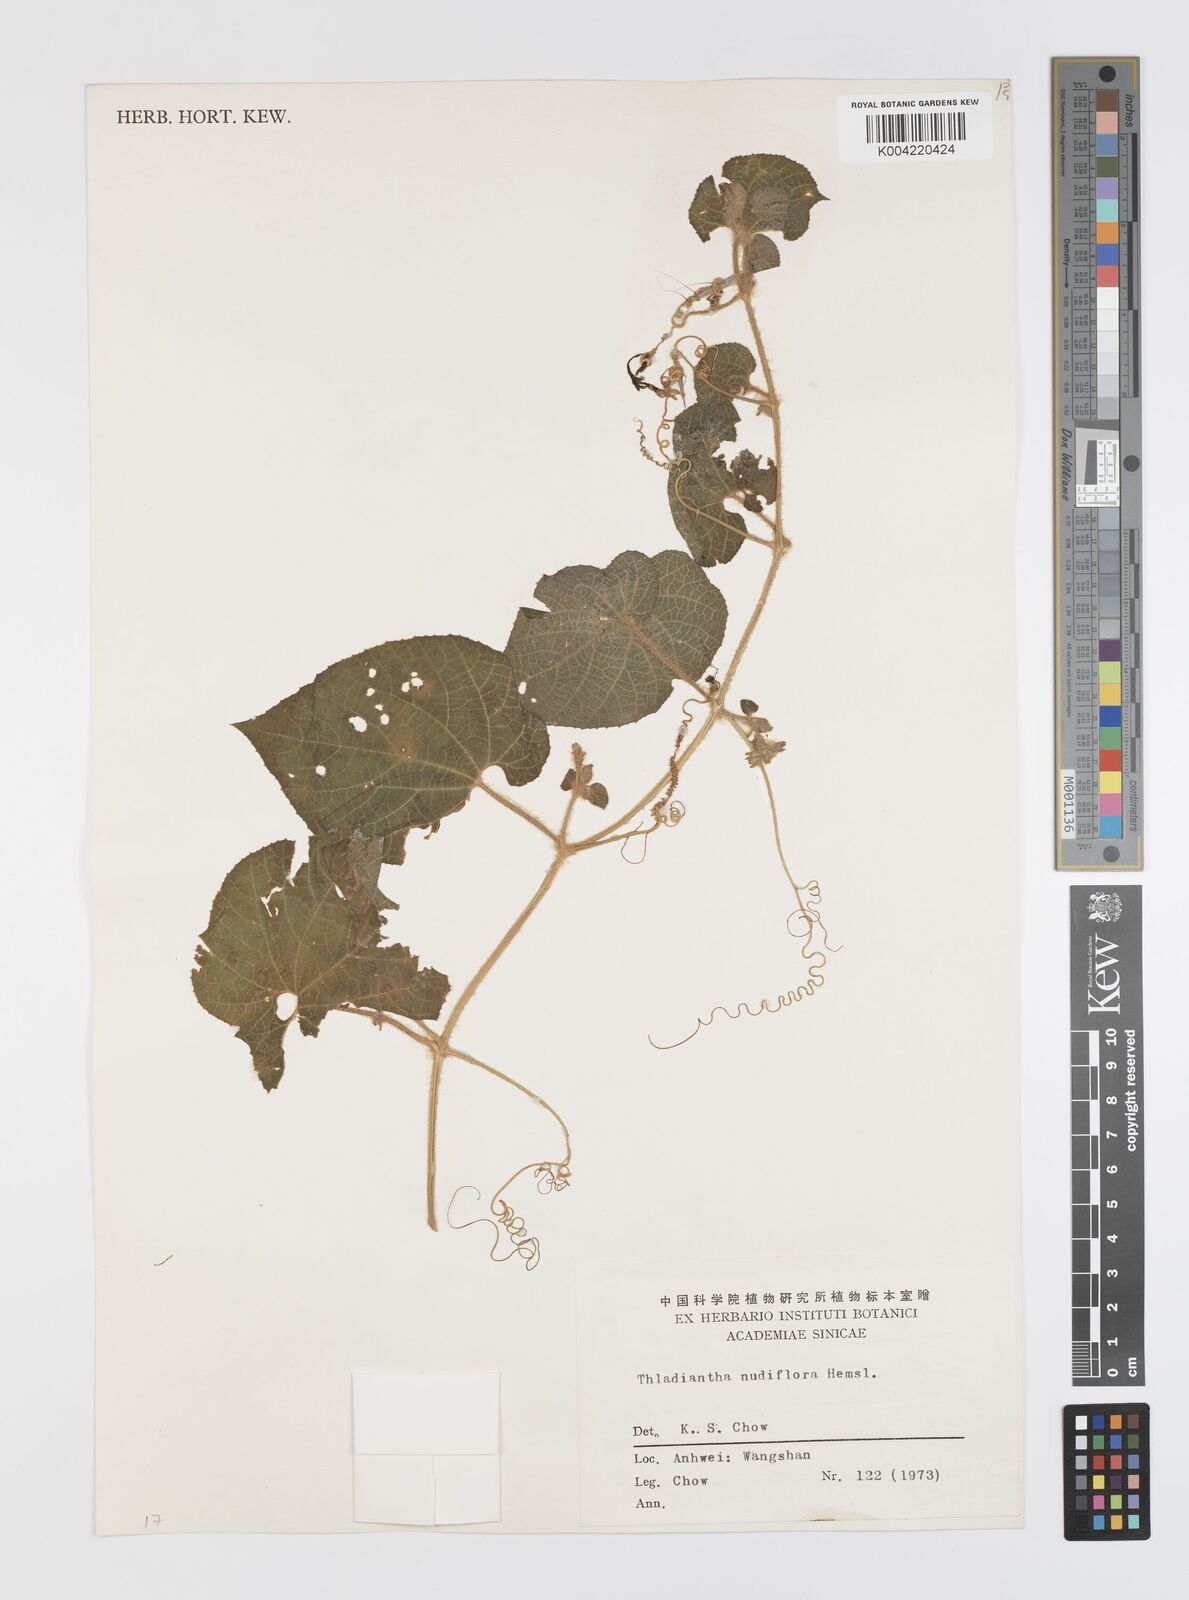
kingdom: Plantae
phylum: Tracheophyta
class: Magnoliopsida
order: Cucurbitales
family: Cucurbitaceae
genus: Thladiantha
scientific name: Thladiantha nudiflora
